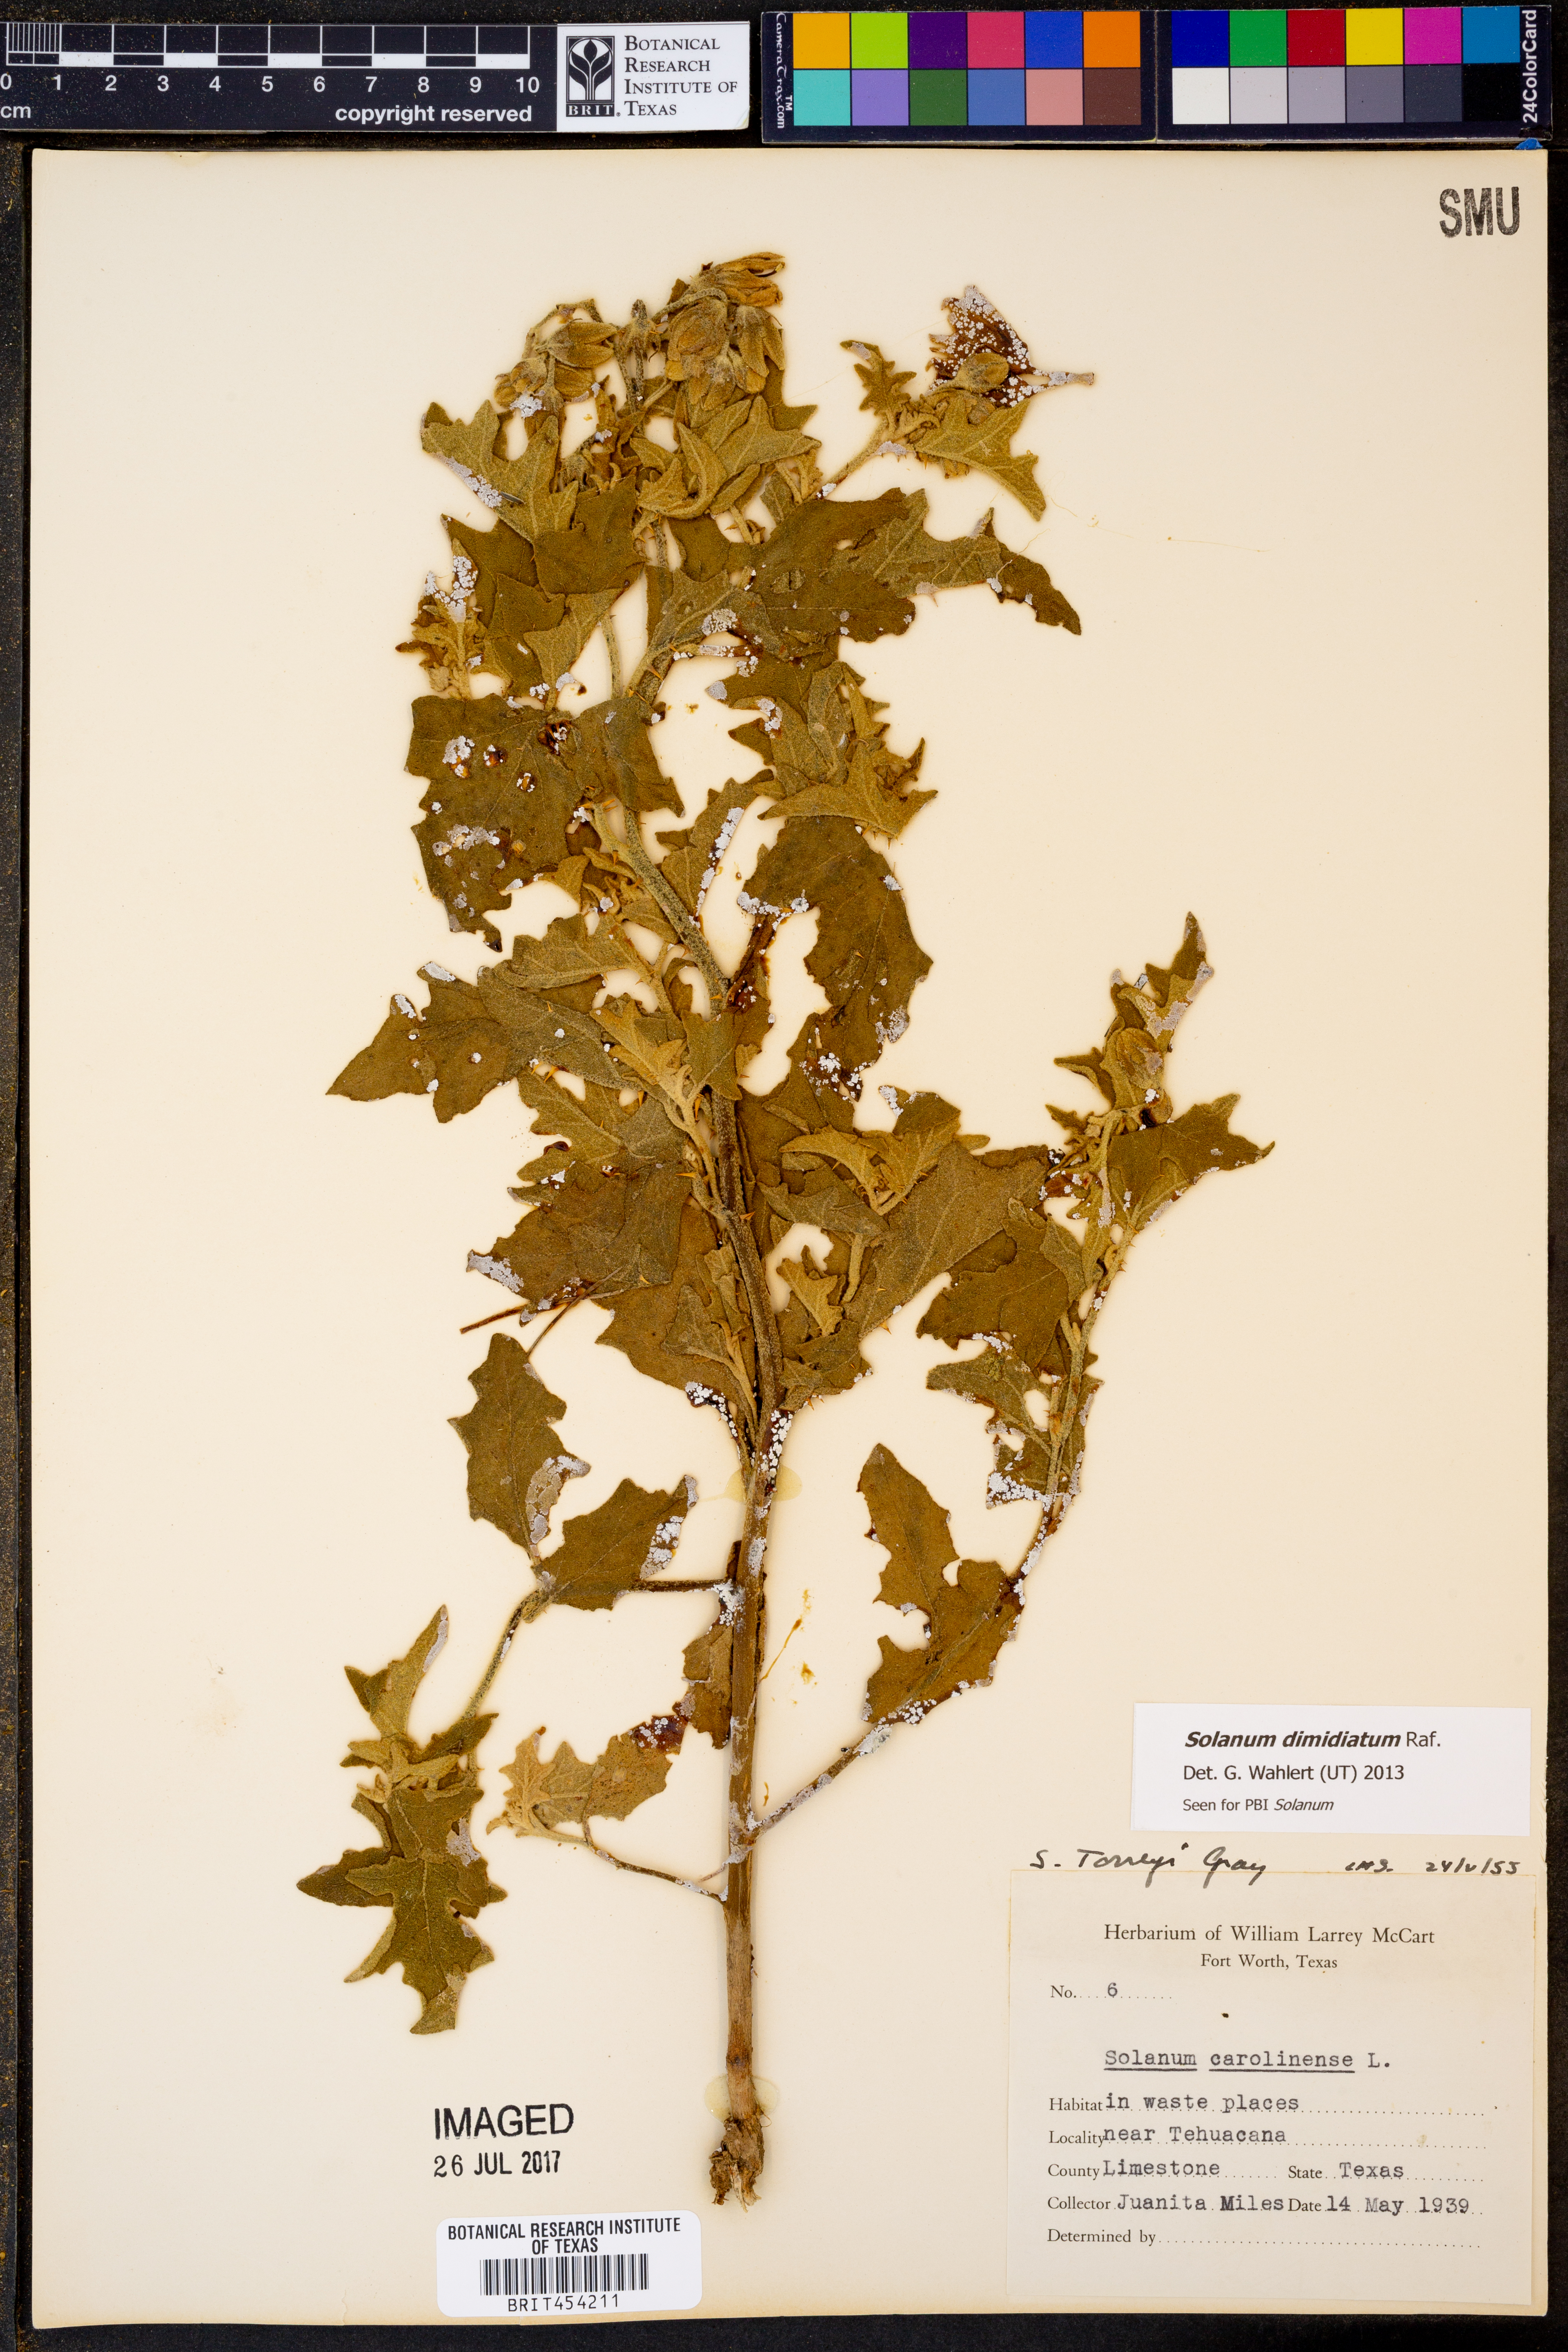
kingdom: Plantae
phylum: Tracheophyta
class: Magnoliopsida
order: Solanales
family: Solanaceae
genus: Solanum
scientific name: Solanum dimidiatum
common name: Carolina horse-nettle
